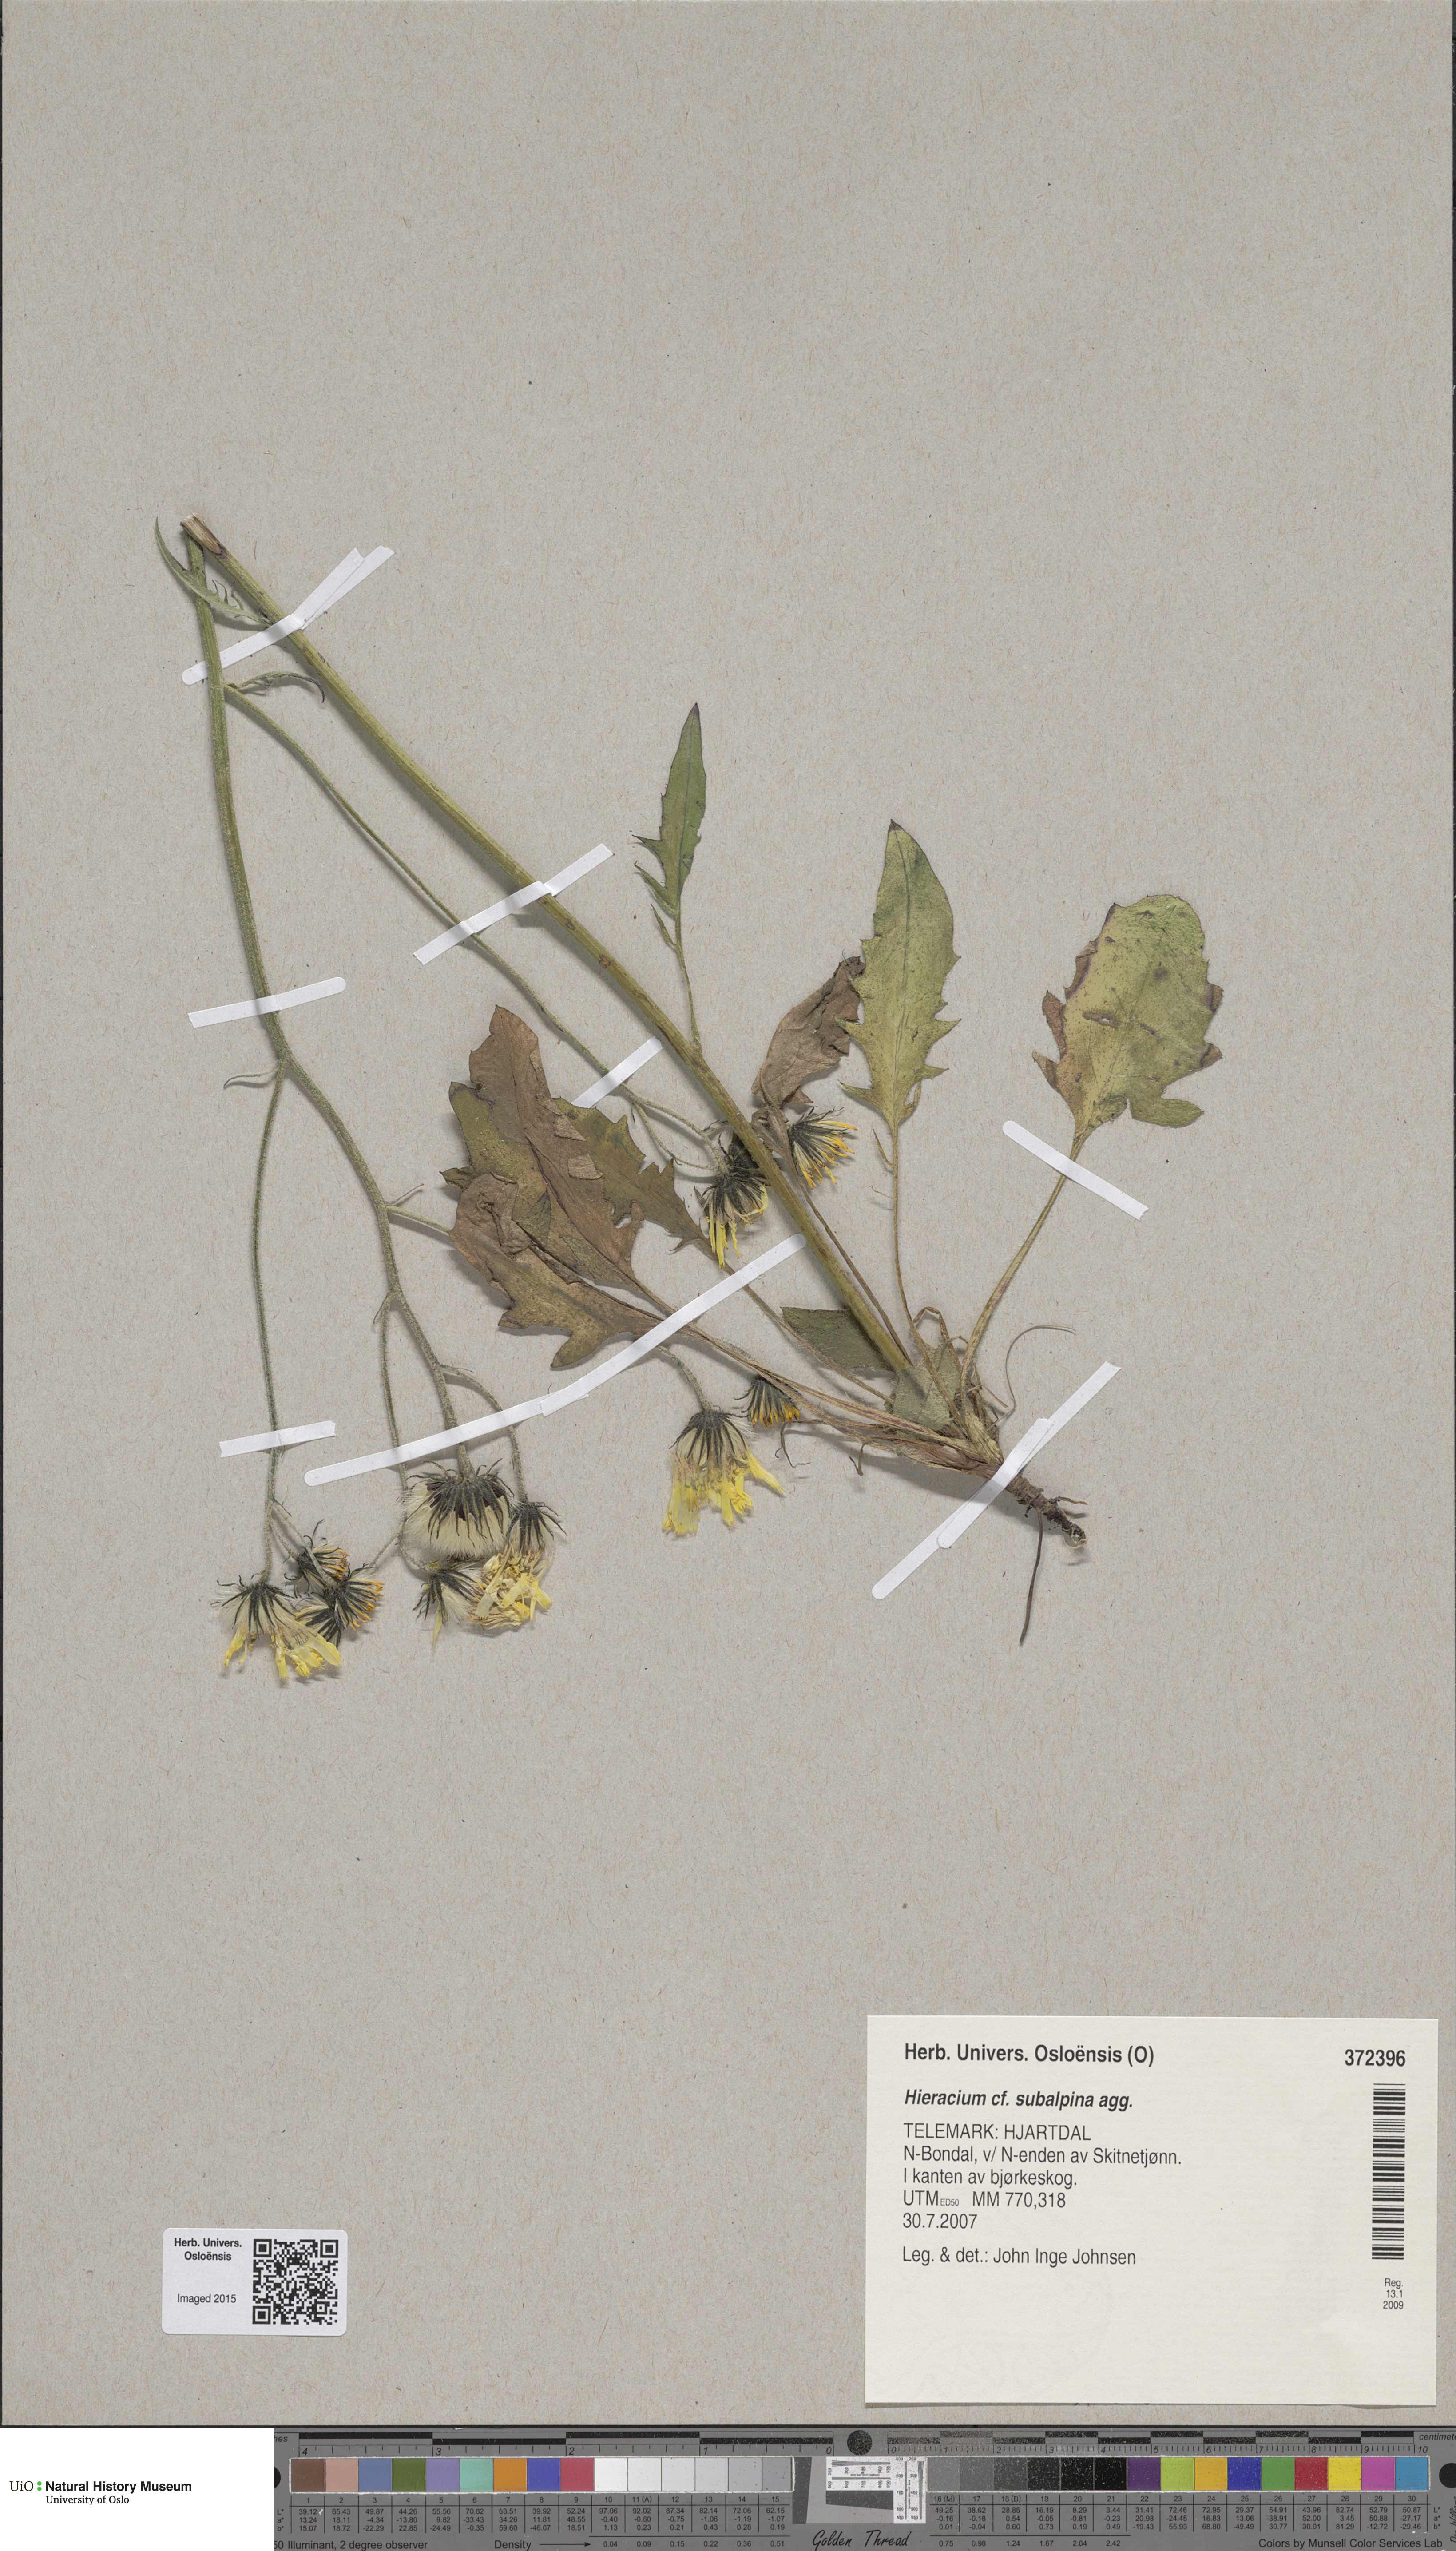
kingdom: Plantae
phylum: Tracheophyta
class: Magnoliopsida
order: Asterales
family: Asteraceae
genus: Hieracium
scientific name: Hieracium umbrosum
